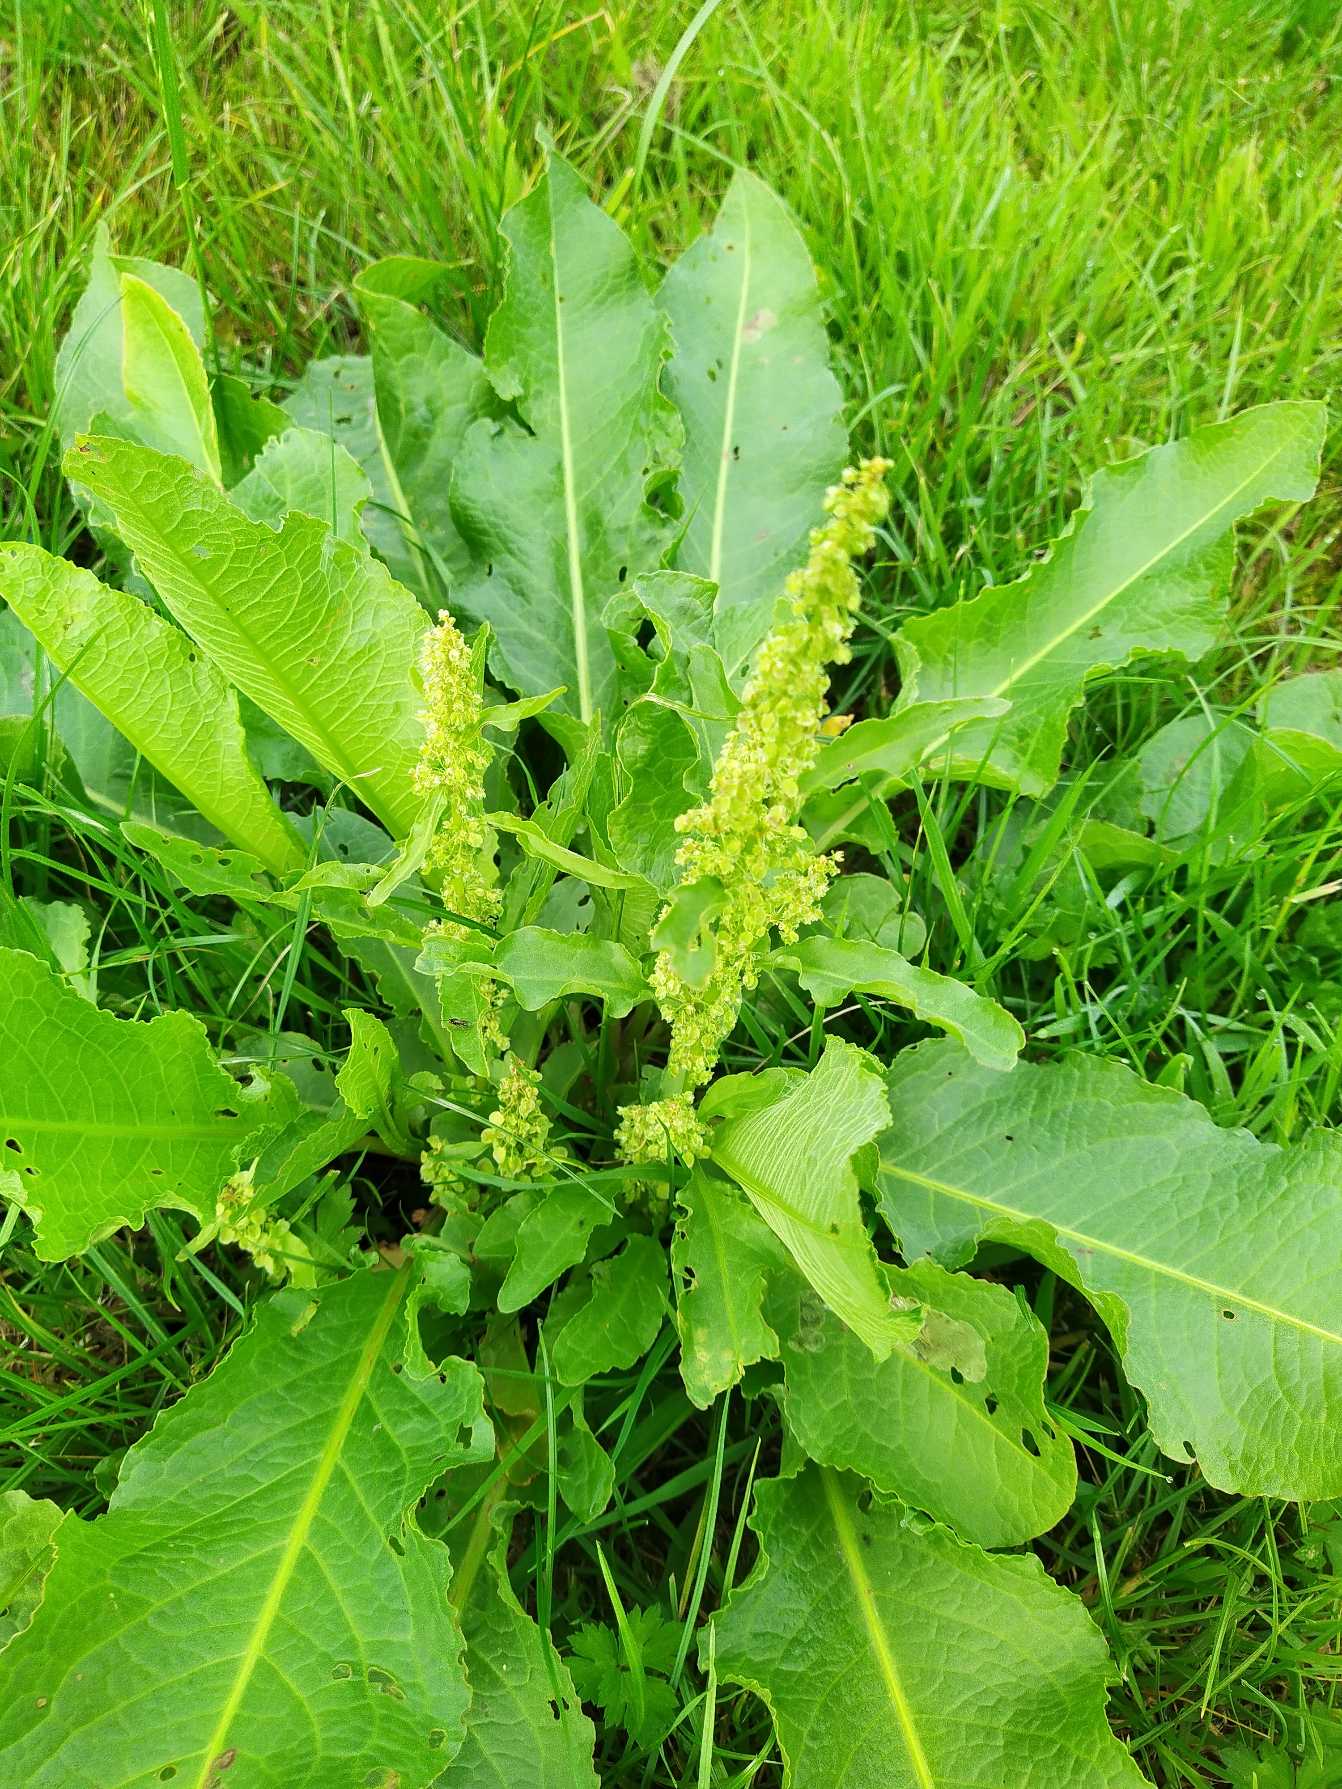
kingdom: Plantae
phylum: Tracheophyta
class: Magnoliopsida
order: Caryophyllales
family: Polygonaceae
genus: Rumex
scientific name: Rumex longifolius
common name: By-skræppe
